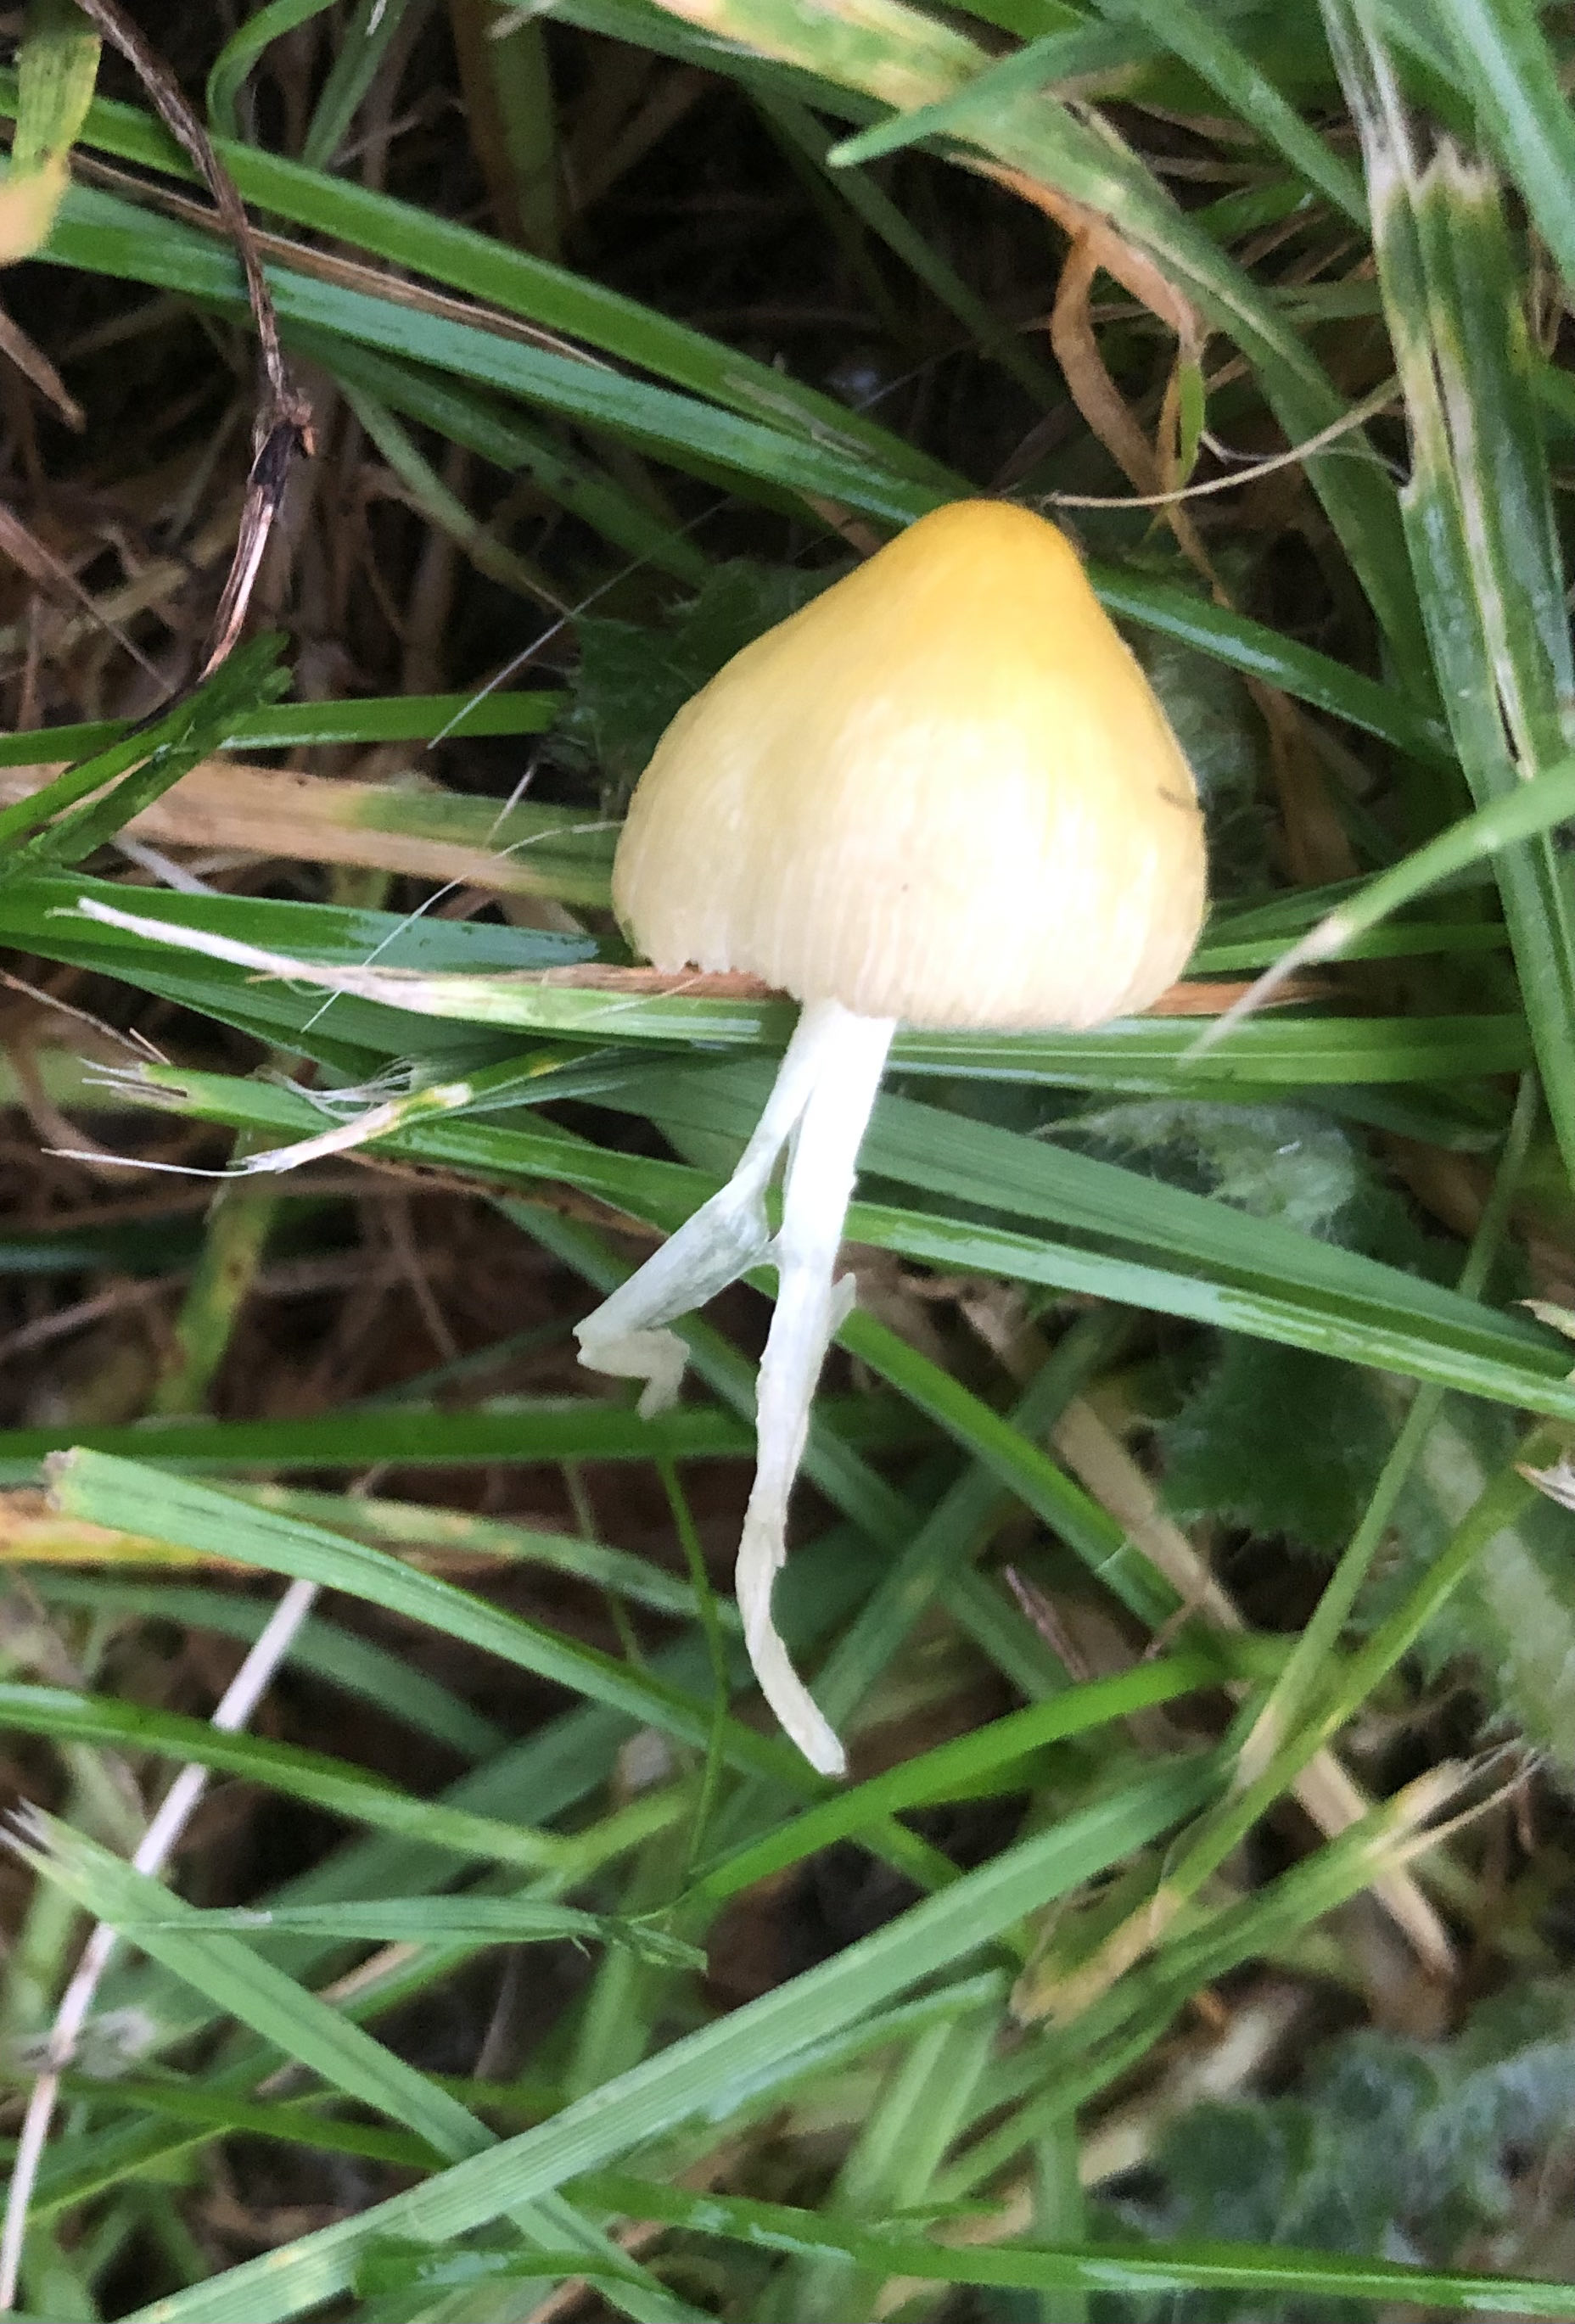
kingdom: Fungi
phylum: Basidiomycota
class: Agaricomycetes
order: Agaricales
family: Bolbitiaceae
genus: Bolbitius
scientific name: Bolbitius titubans
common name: almindelig gulhat
